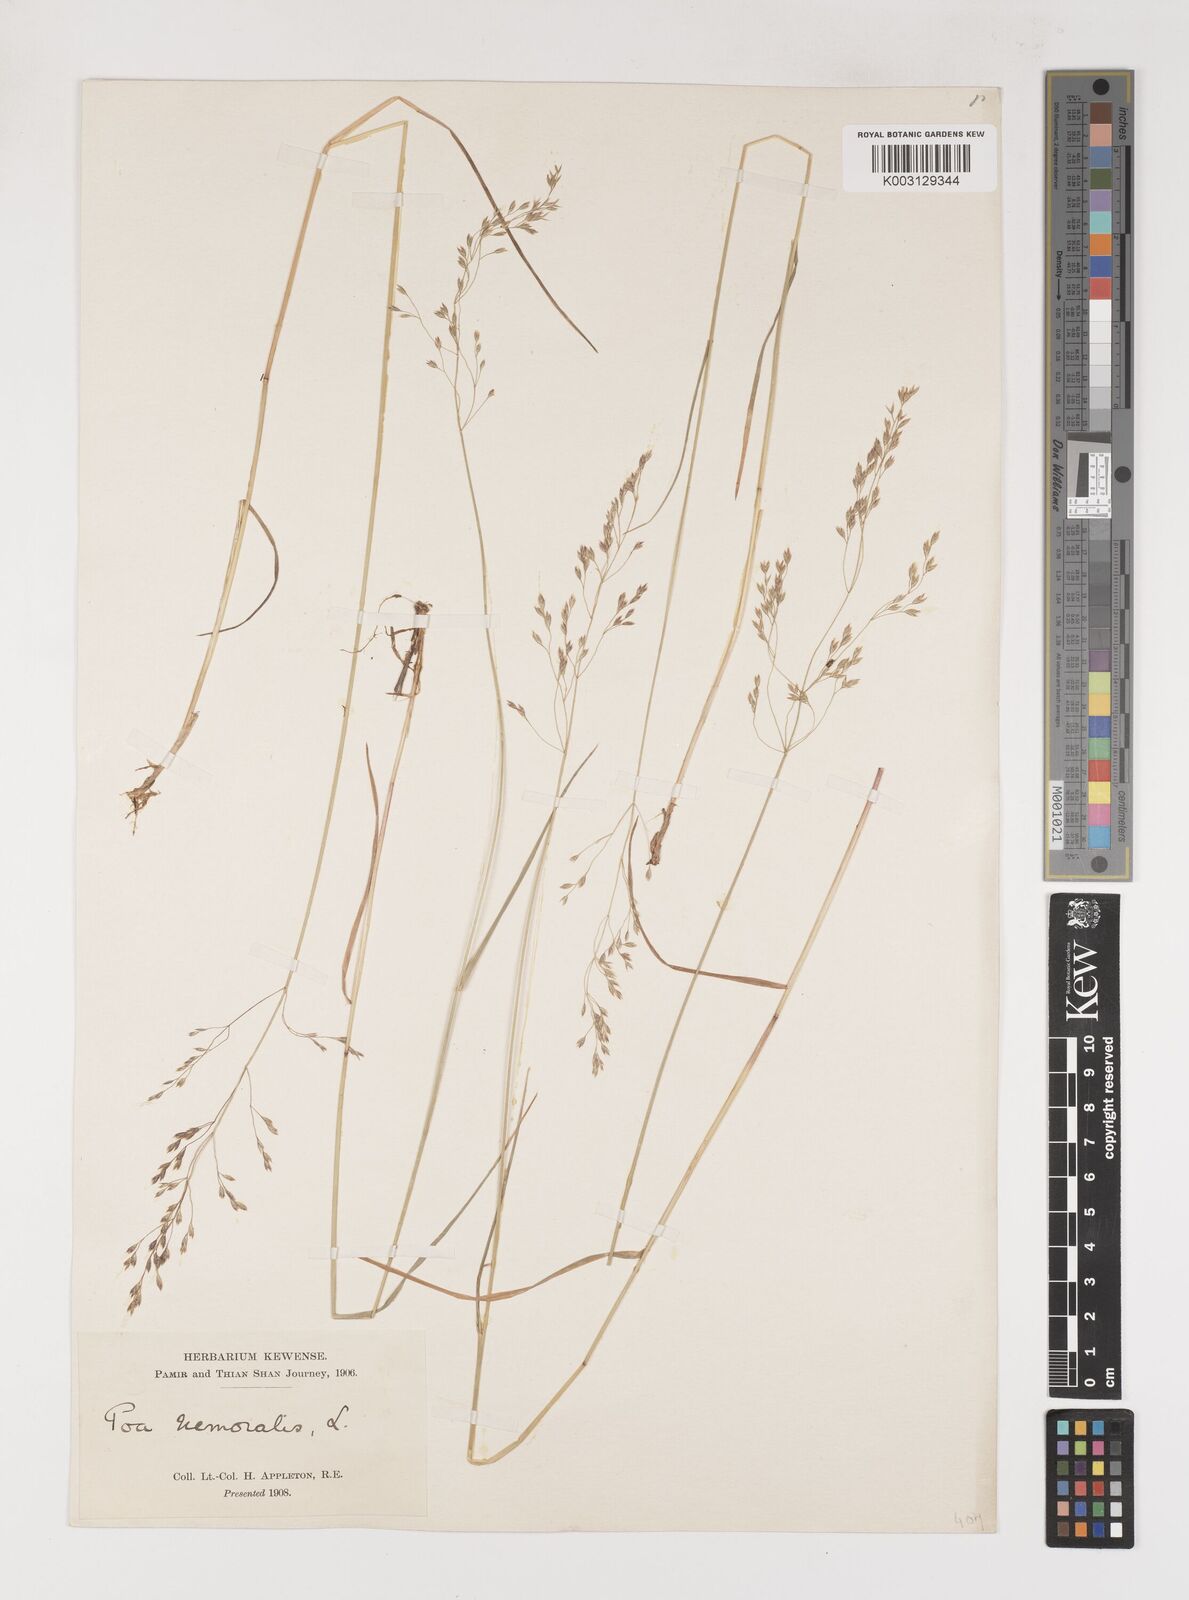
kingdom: Plantae
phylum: Tracheophyta
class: Liliopsida
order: Poales
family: Poaceae
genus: Poa
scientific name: Poa nemoralis
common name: Wood bluegrass
